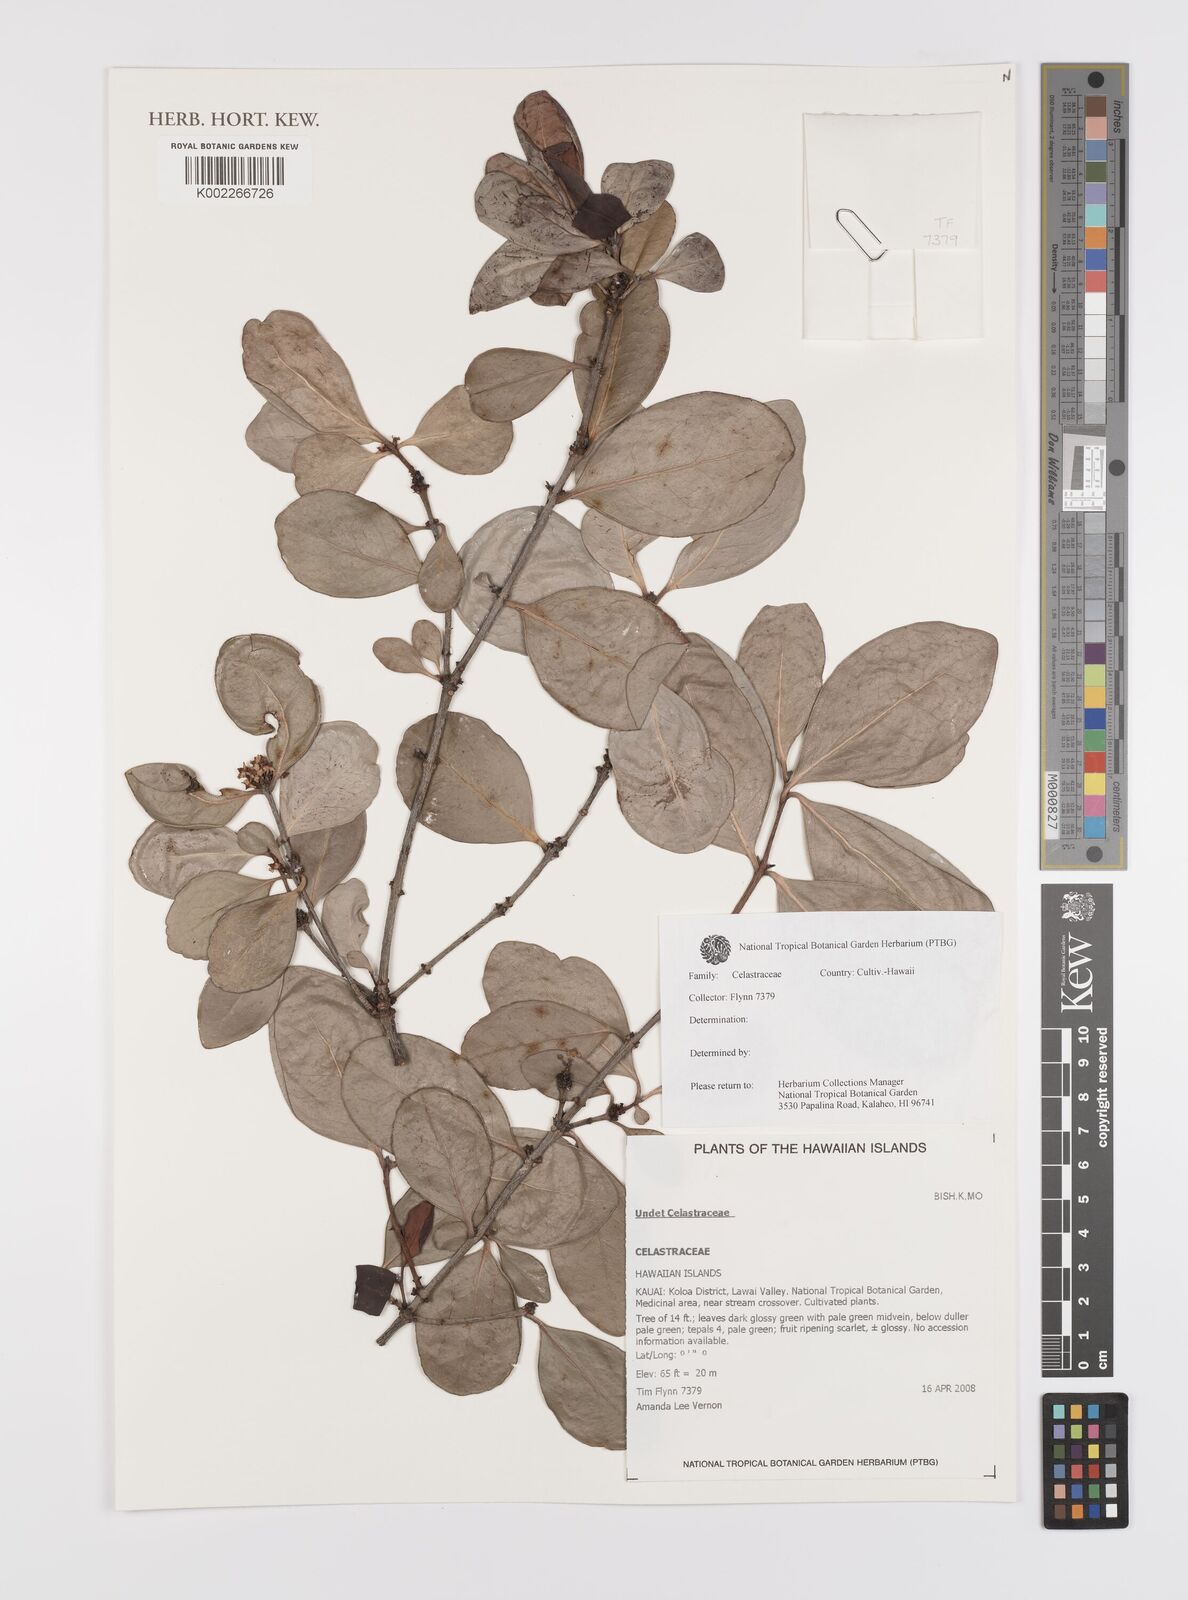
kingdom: Plantae
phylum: Tracheophyta
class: Magnoliopsida
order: Celastrales
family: Celastraceae
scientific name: Celastraceae
